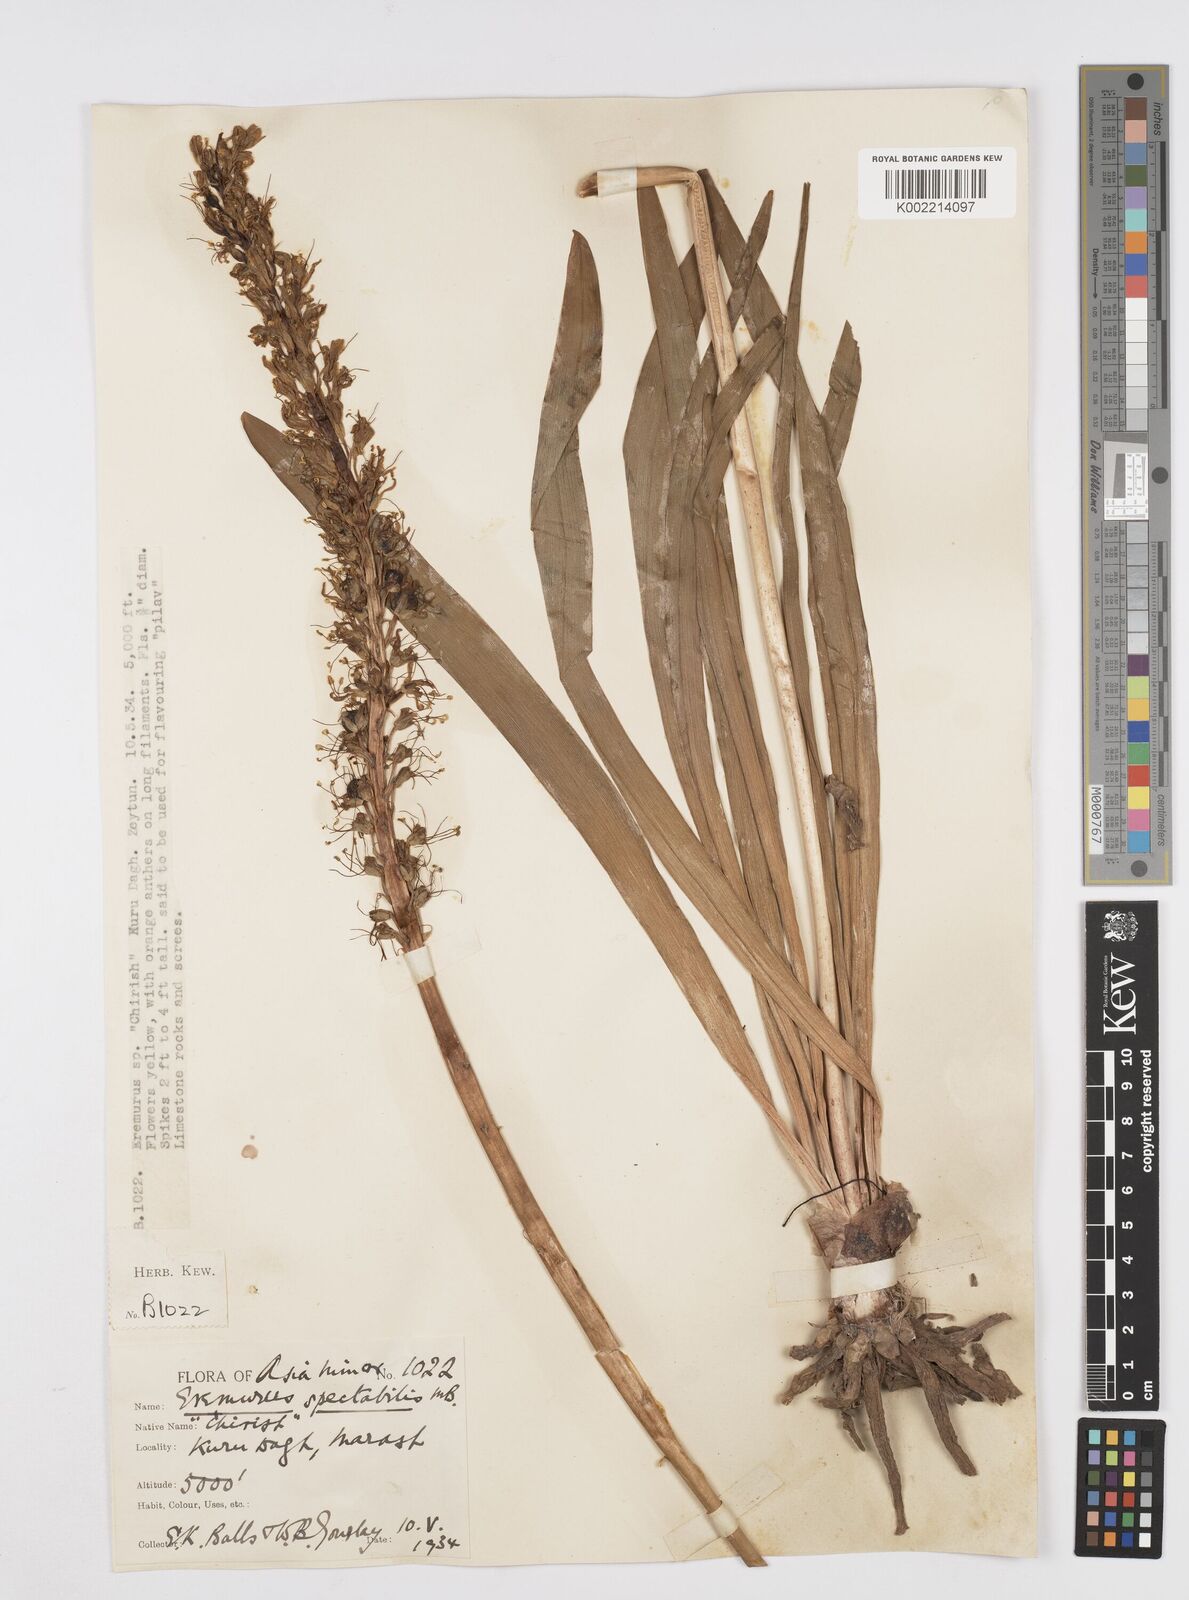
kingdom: Plantae
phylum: Tracheophyta
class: Liliopsida
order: Asparagales
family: Asphodelaceae
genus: Eremurus
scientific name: Eremurus spectabilis
